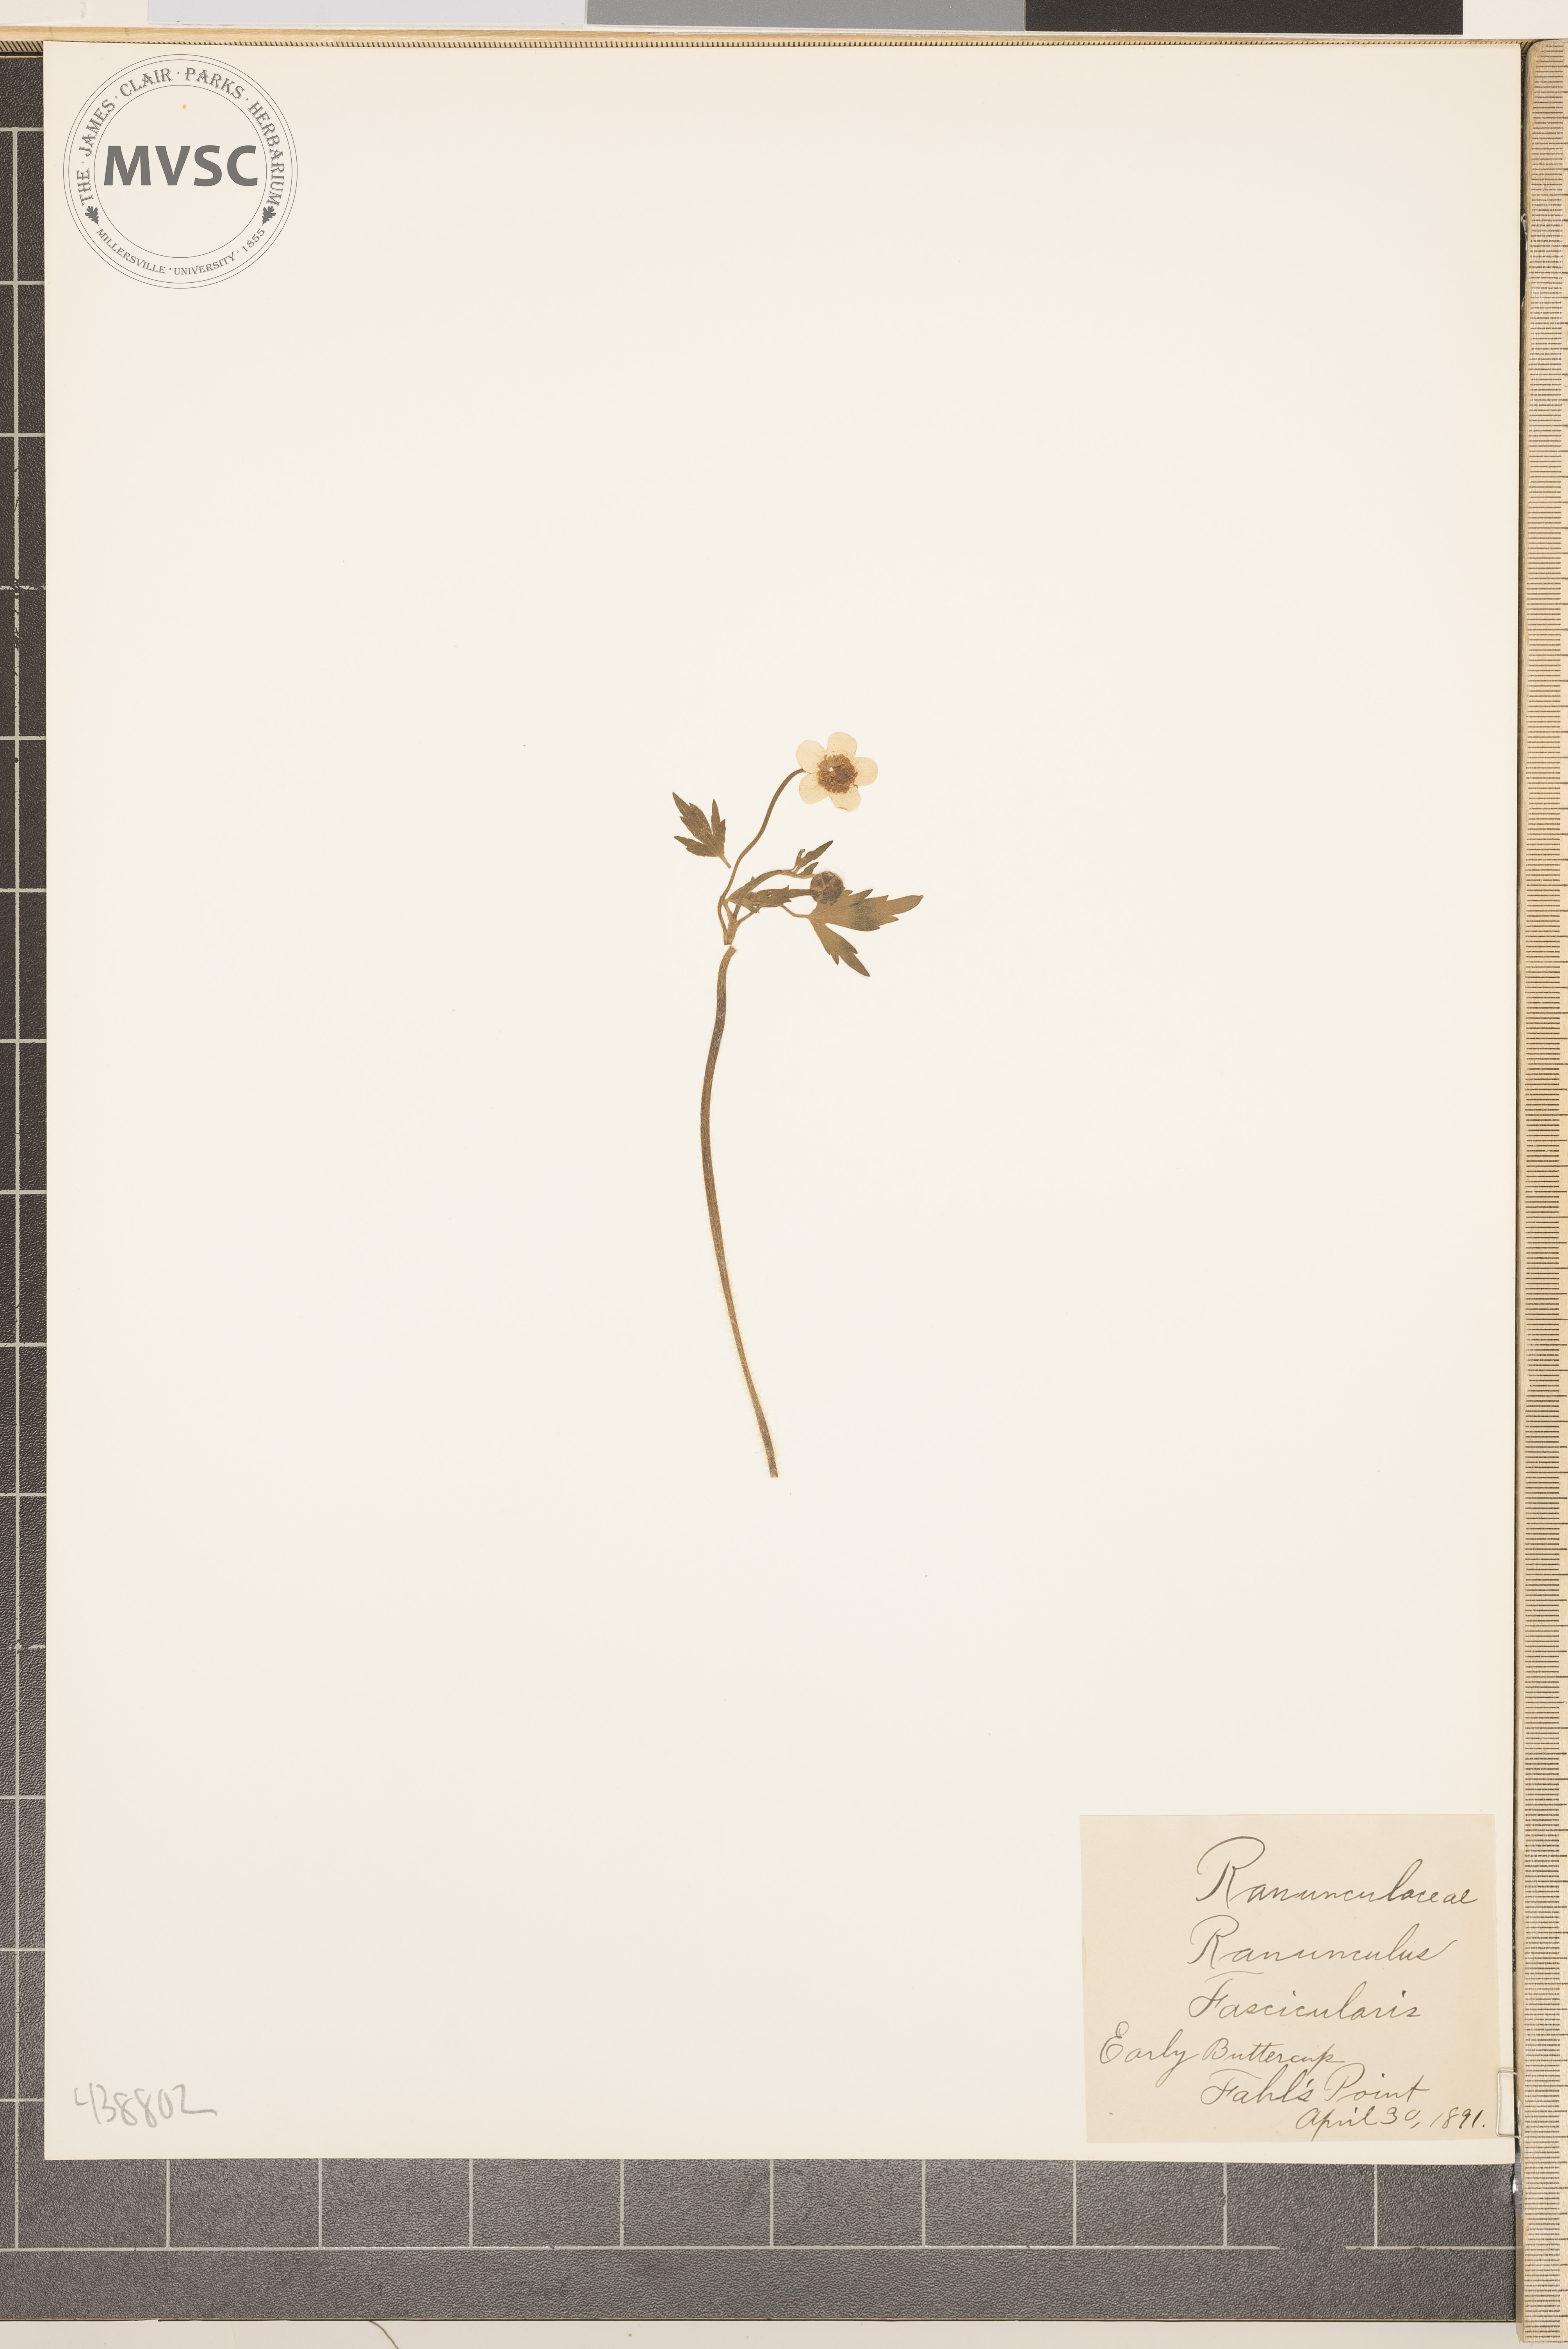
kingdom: Plantae
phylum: Tracheophyta
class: Magnoliopsida
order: Ranunculales
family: Ranunculaceae
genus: Ranunculus
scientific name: Ranunculus fascicularis
